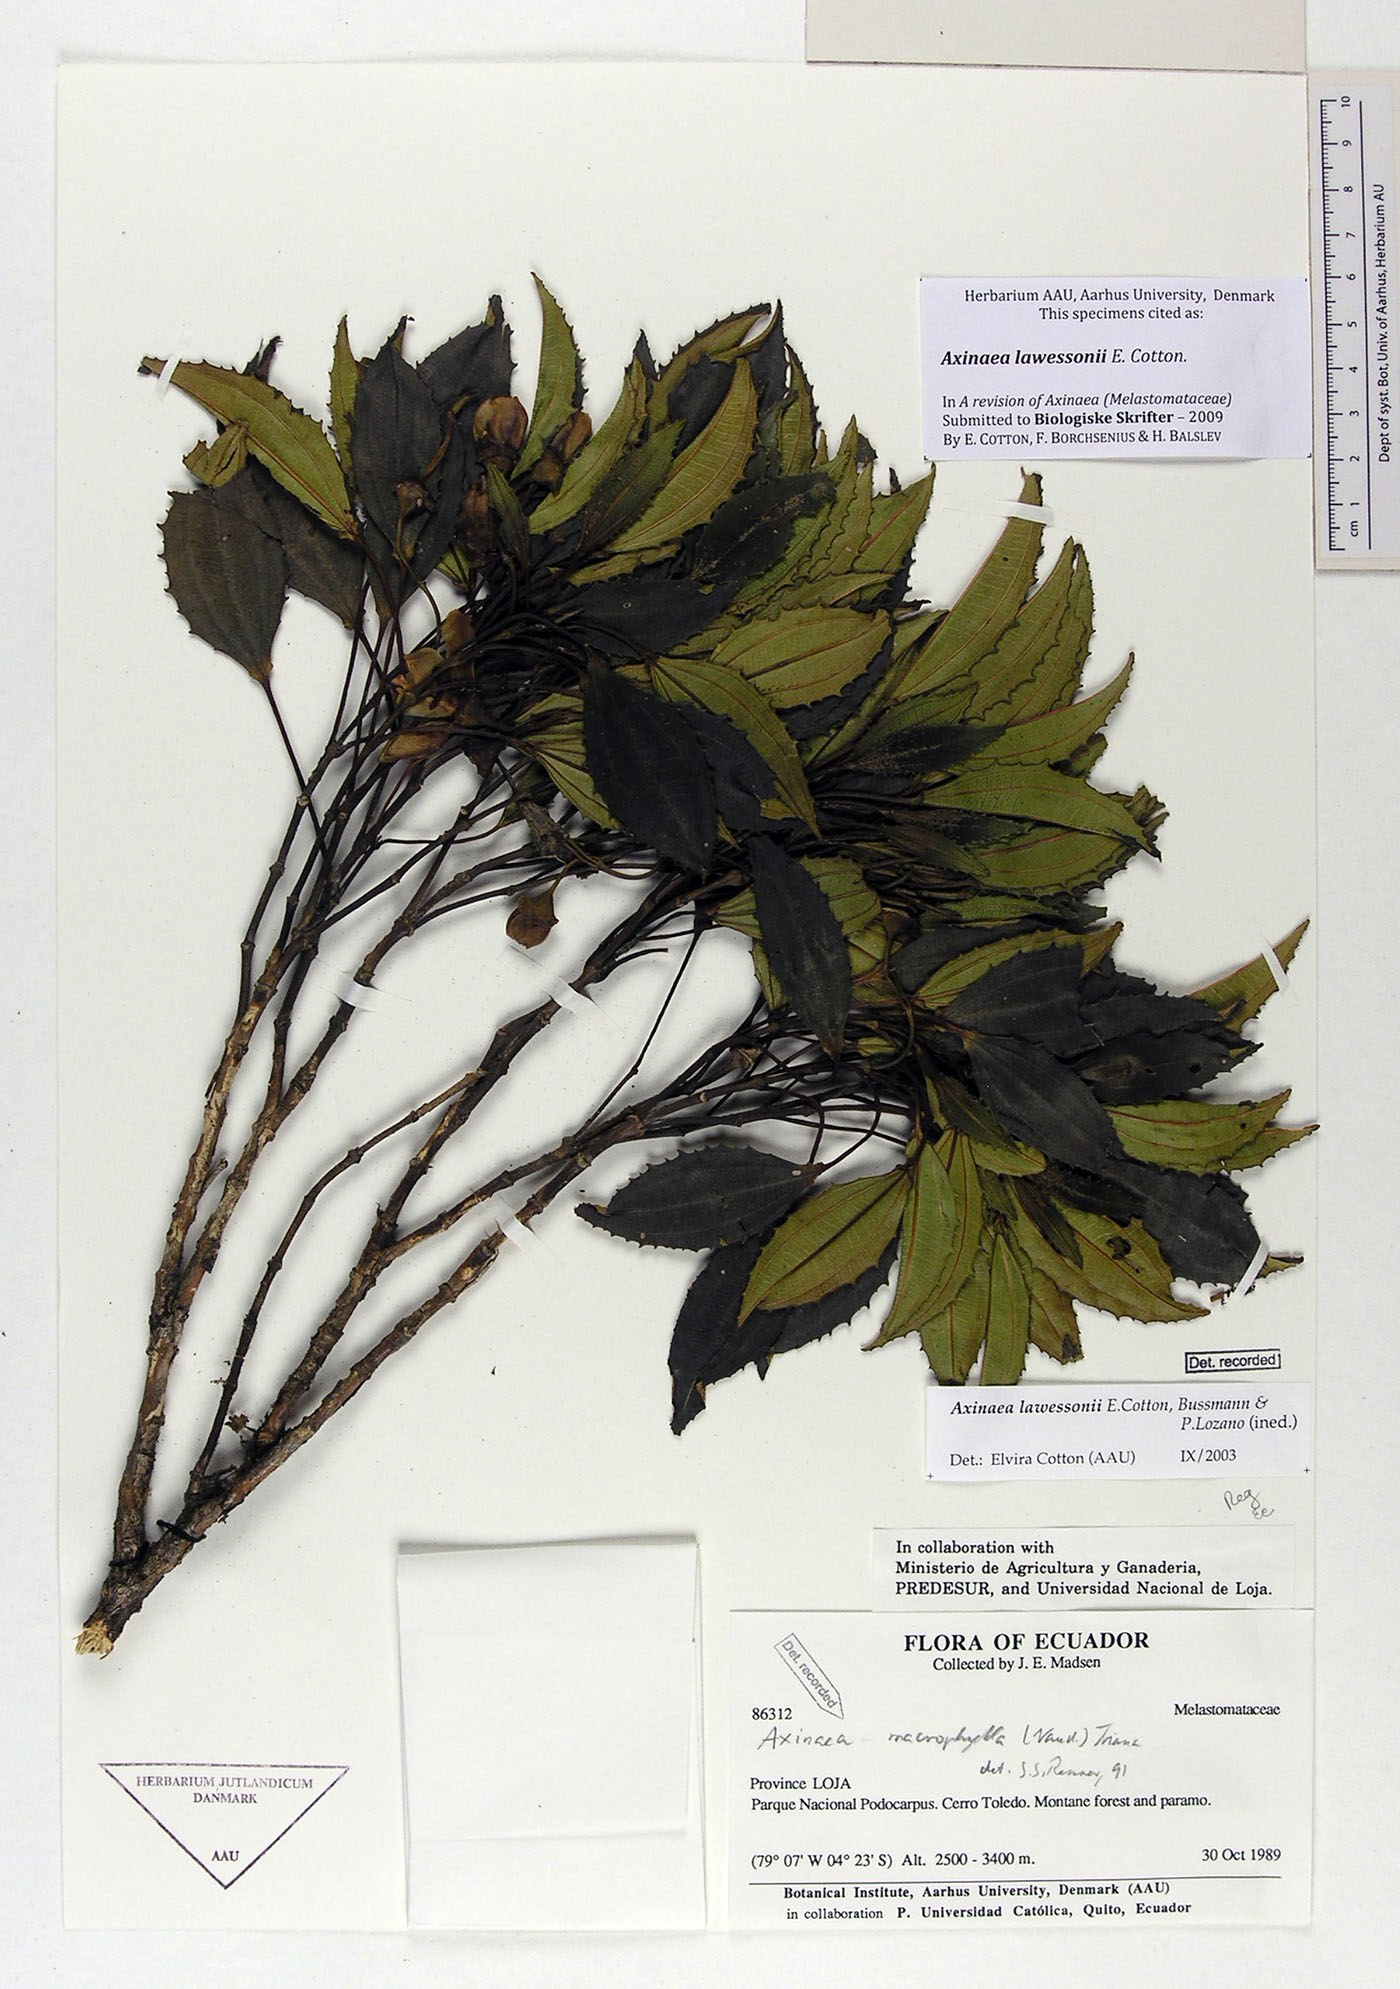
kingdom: Plantae
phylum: Tracheophyta
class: Magnoliopsida
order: Myrtales
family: Melastomataceae
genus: Axinaea
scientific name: Axinaea lawessonii
